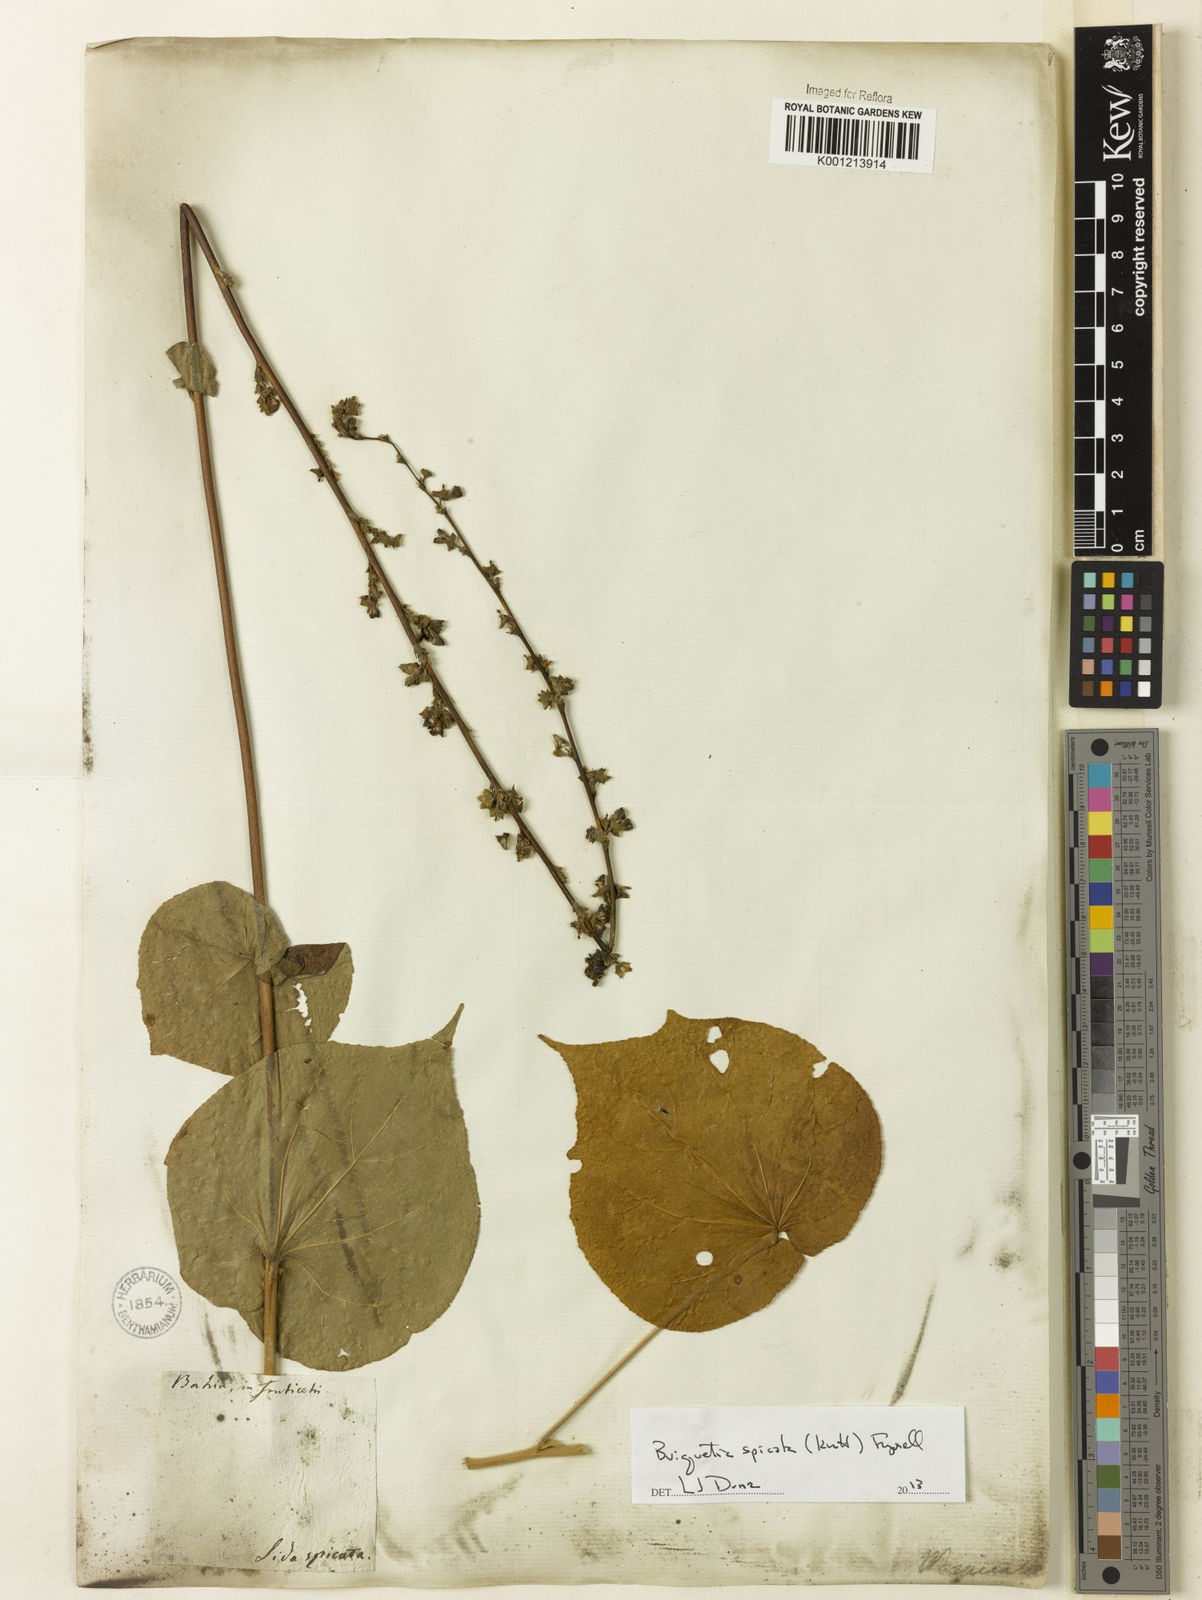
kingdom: Plantae
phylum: Tracheophyta
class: Magnoliopsida
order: Malvales
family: Malvaceae
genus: Allobriquetia
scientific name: Allobriquetia spicata
